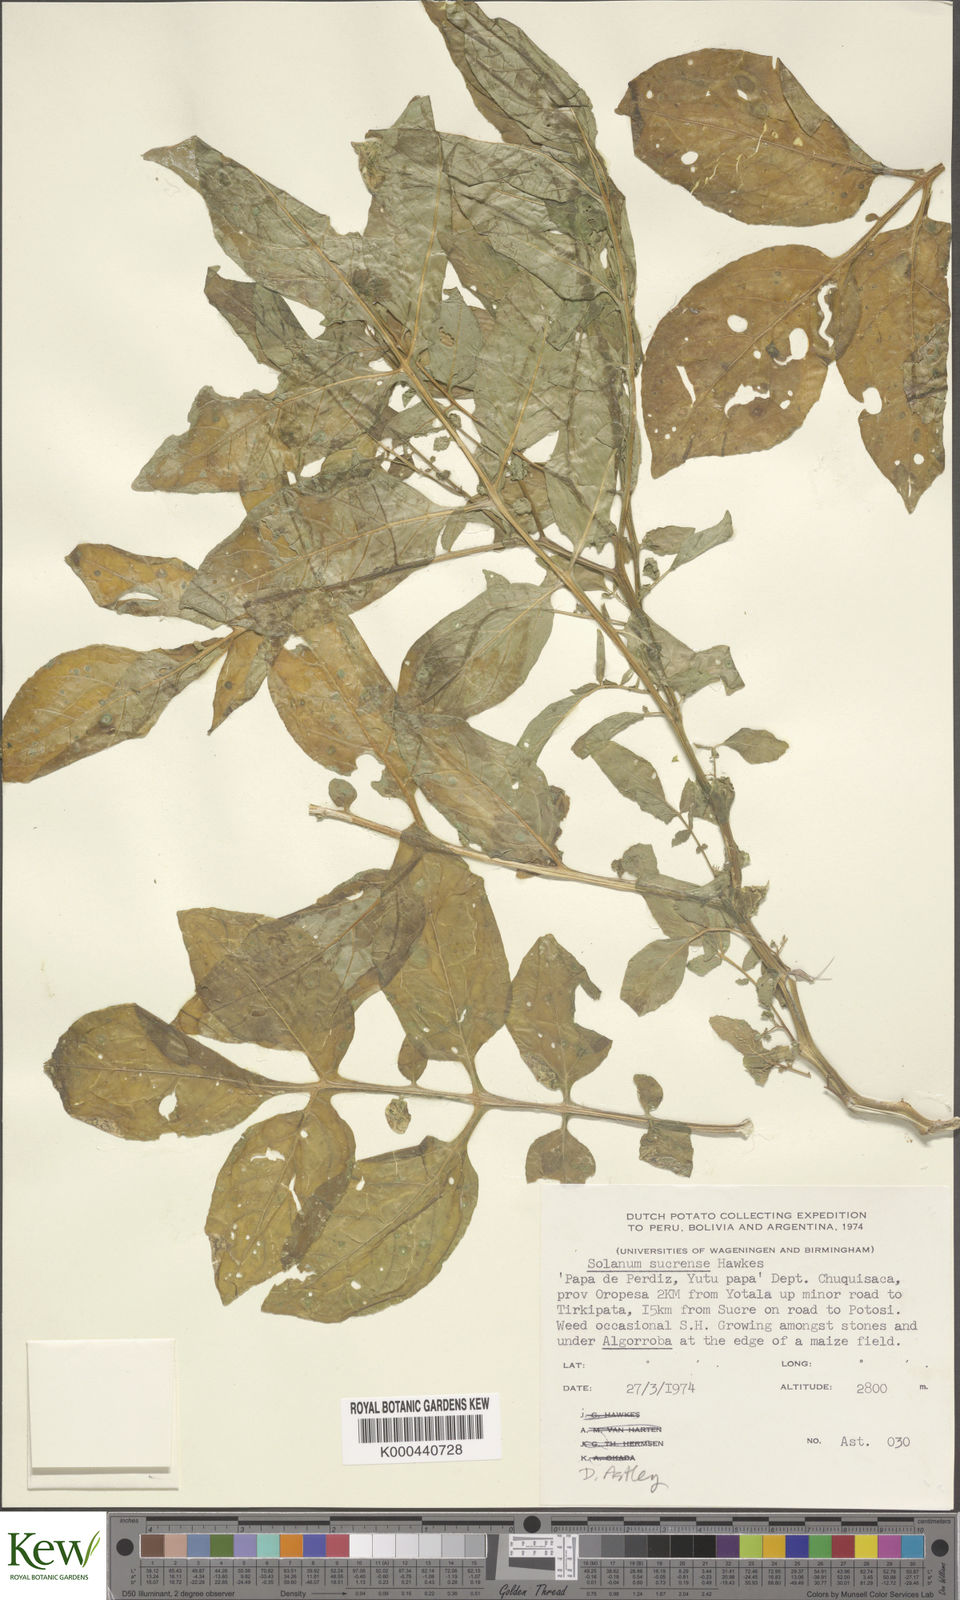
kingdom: Plantae
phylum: Tracheophyta
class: Magnoliopsida
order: Solanales
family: Solanaceae
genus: Solanum
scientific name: Solanum brevicaule
